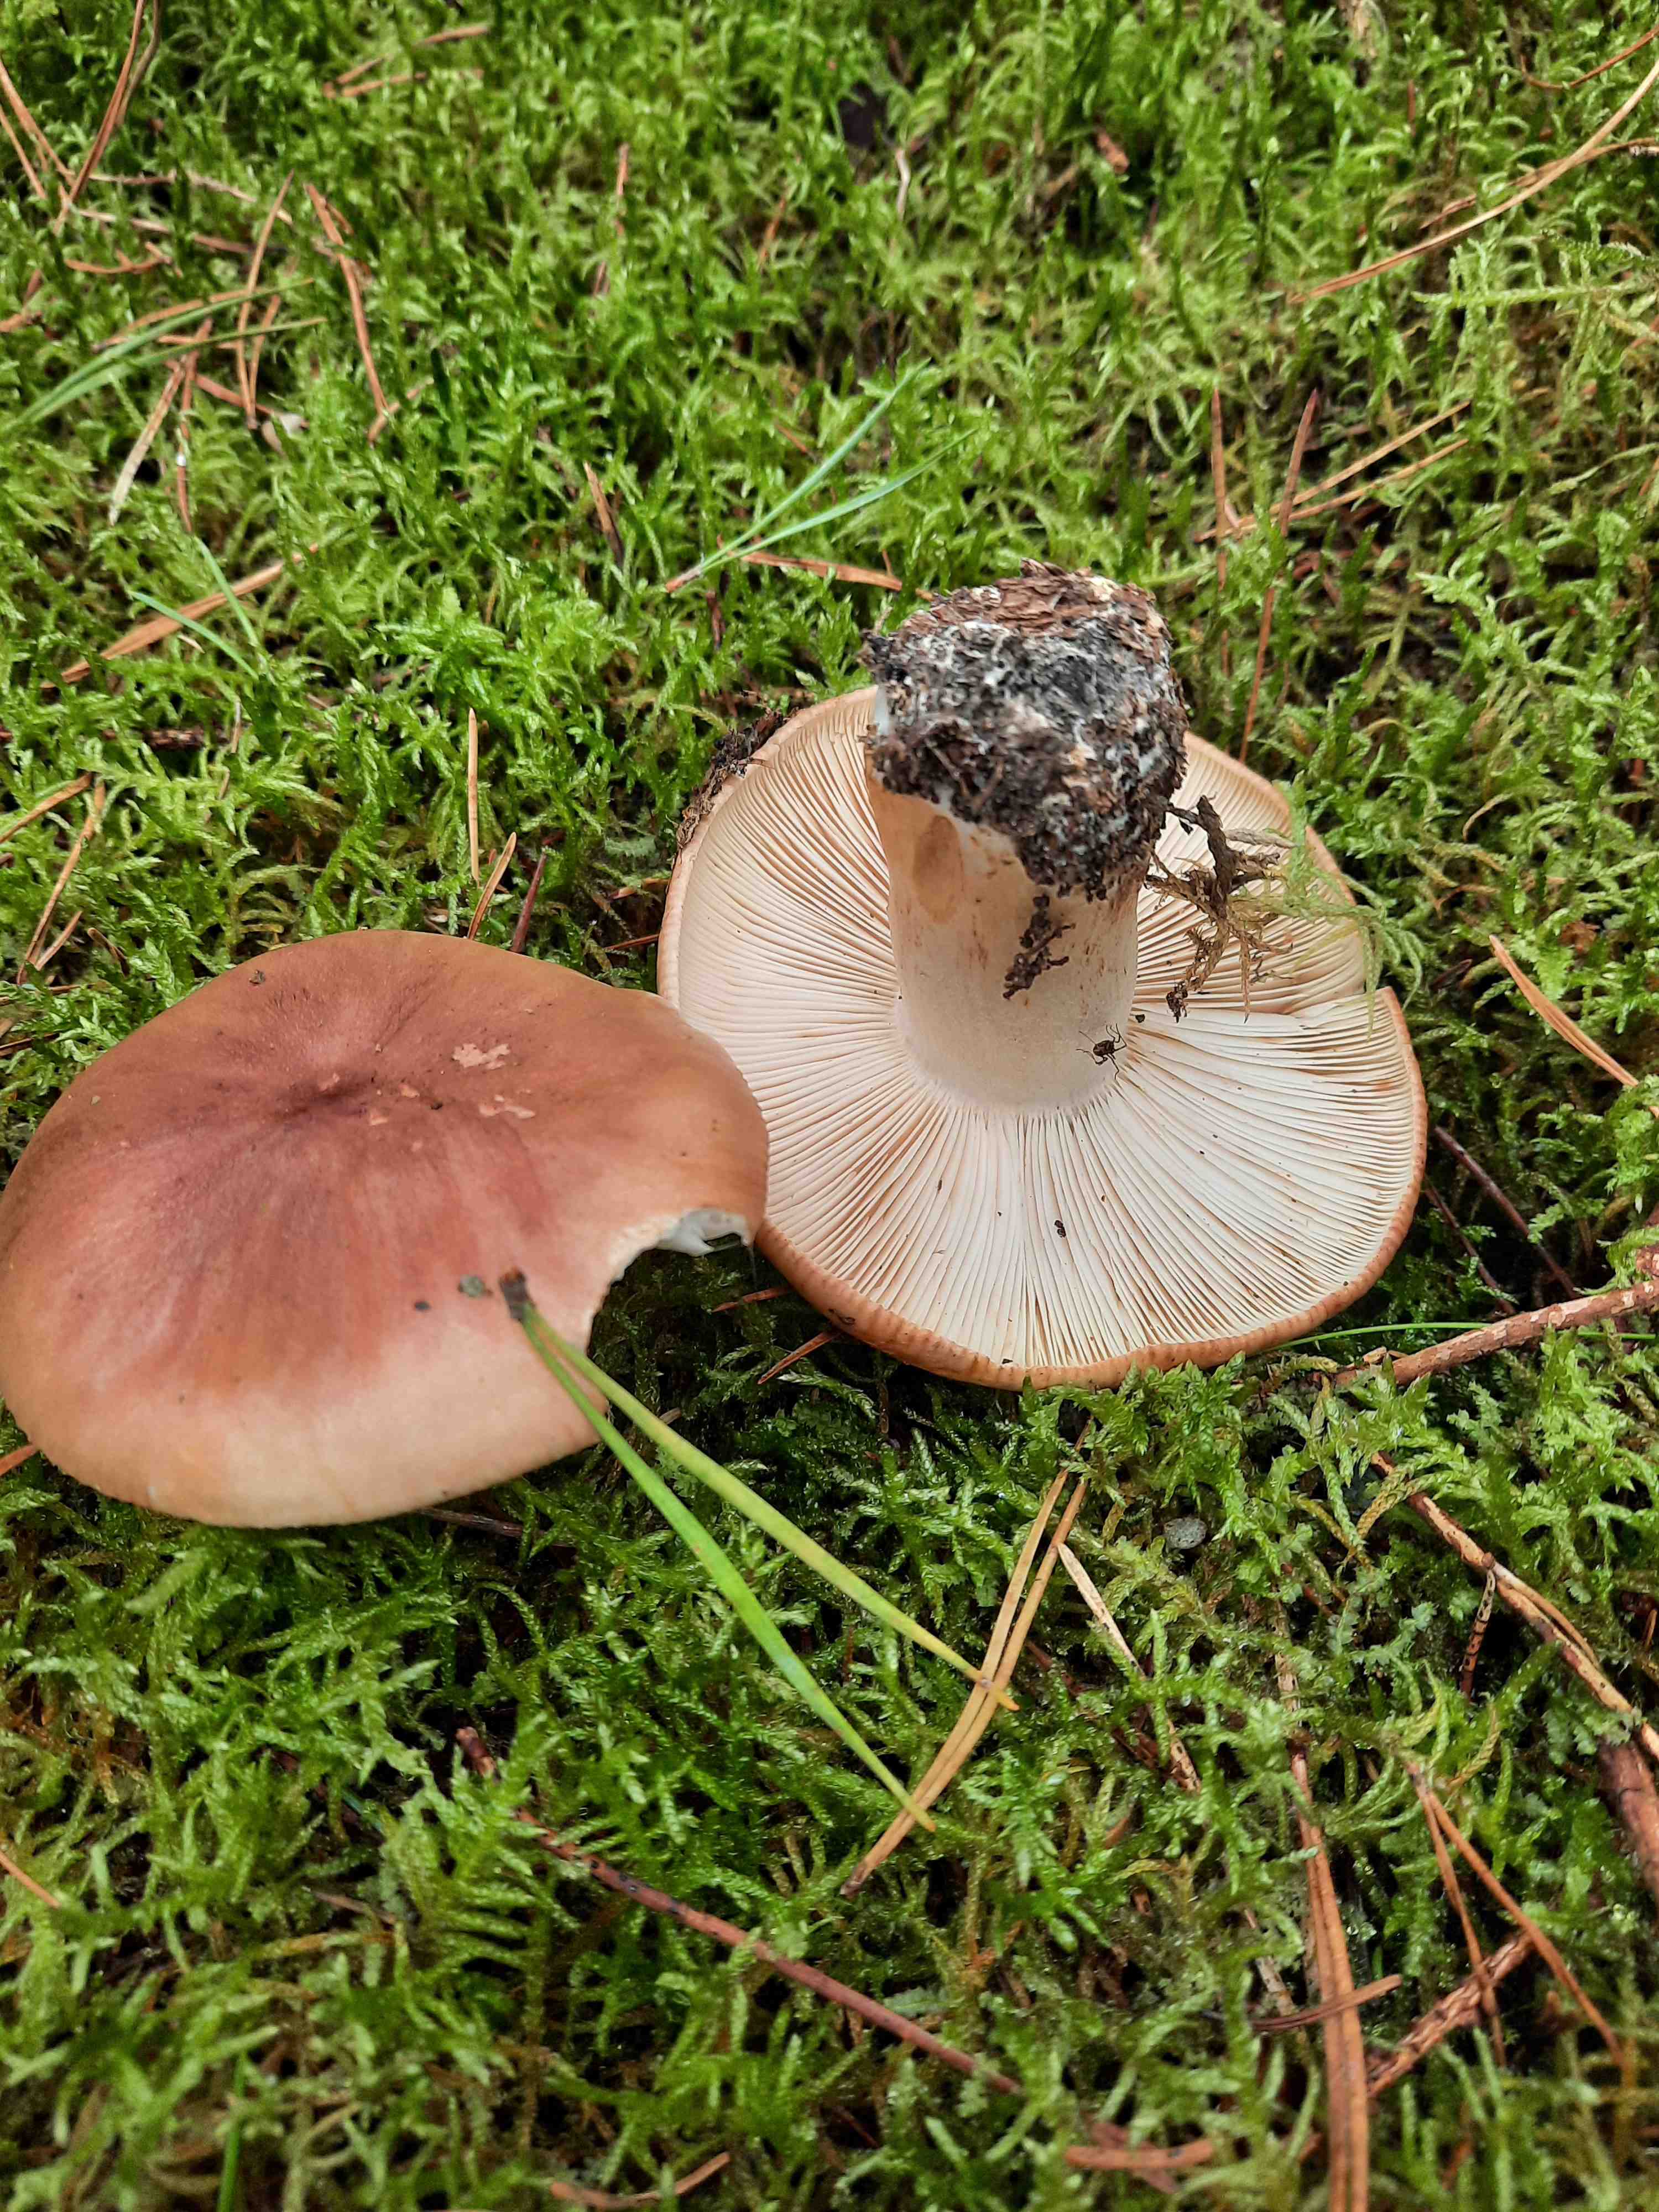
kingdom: Fungi
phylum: Basidiomycota
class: Agaricomycetes
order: Agaricales
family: Tricholomataceae
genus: Tricholoma
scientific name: Tricholoma stans
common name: stolt ridderhat
